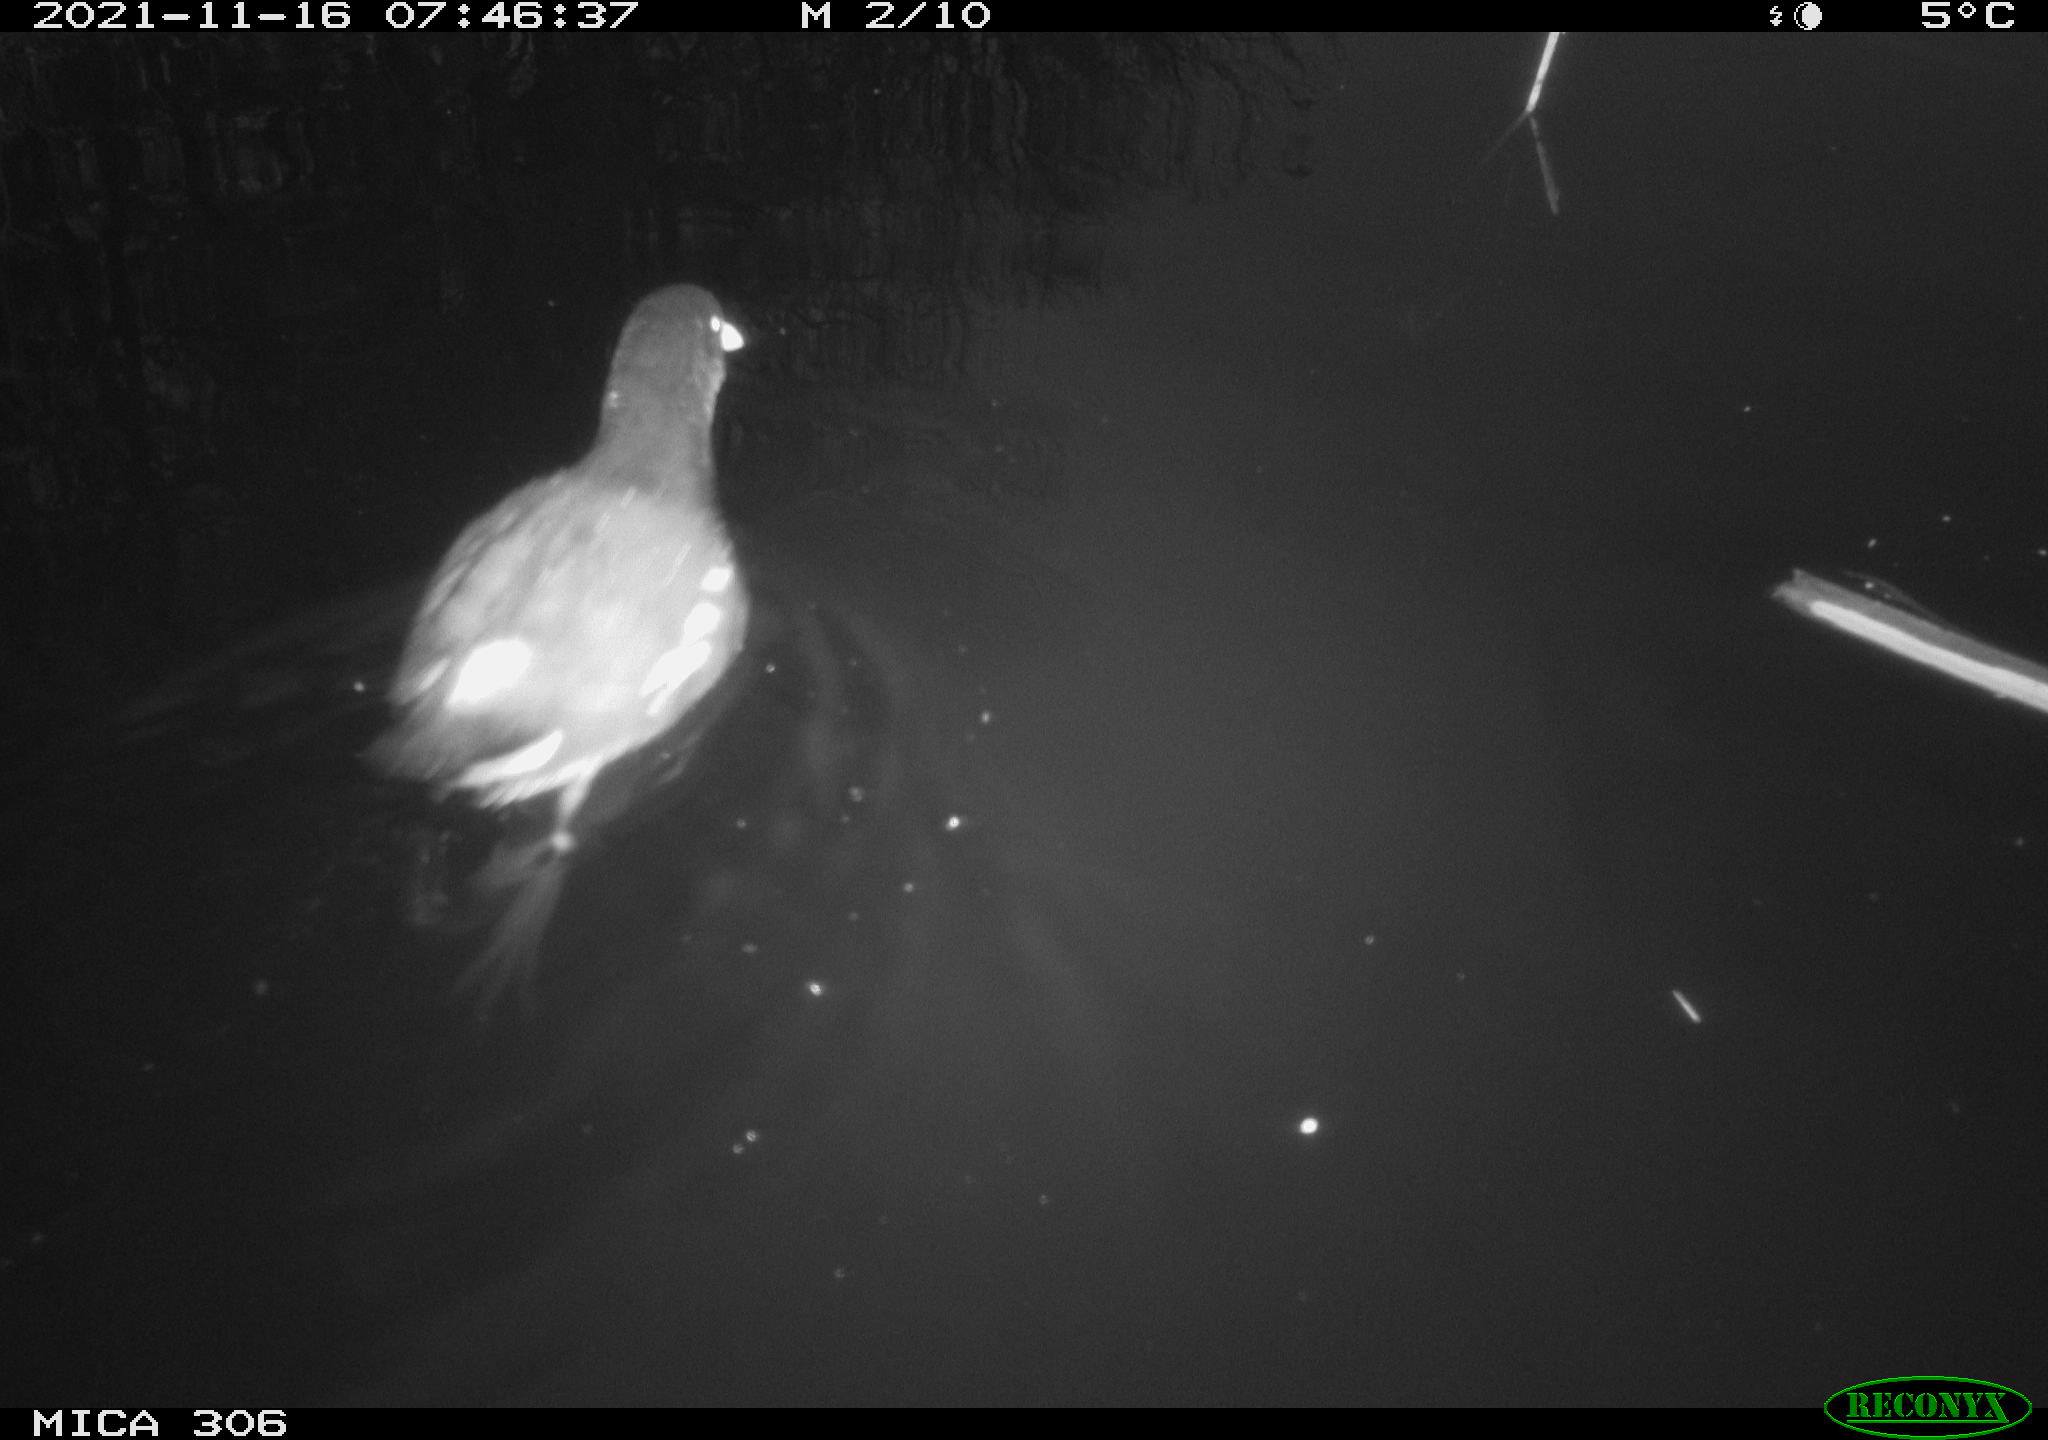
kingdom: Animalia
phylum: Chordata
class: Aves
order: Gruiformes
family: Rallidae
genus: Fulica
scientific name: Fulica atra
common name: Eurasian coot
